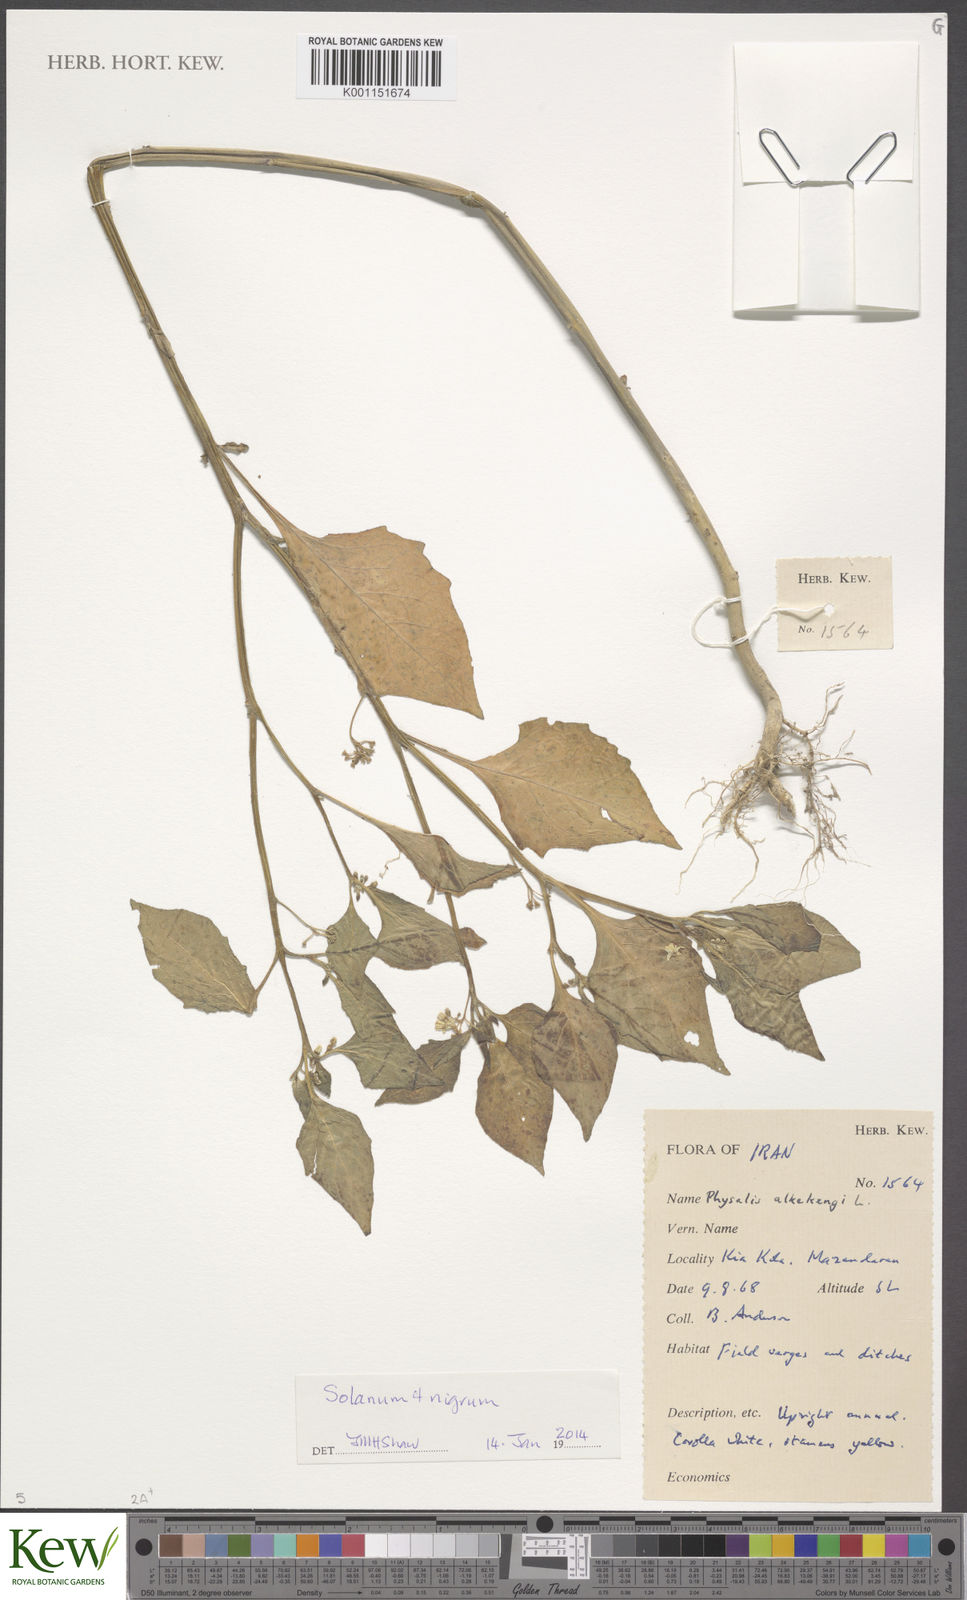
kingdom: Plantae
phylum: Tracheophyta
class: Magnoliopsida
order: Solanales
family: Solanaceae
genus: Solanum
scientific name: Solanum nigrum
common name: Black nightshade
